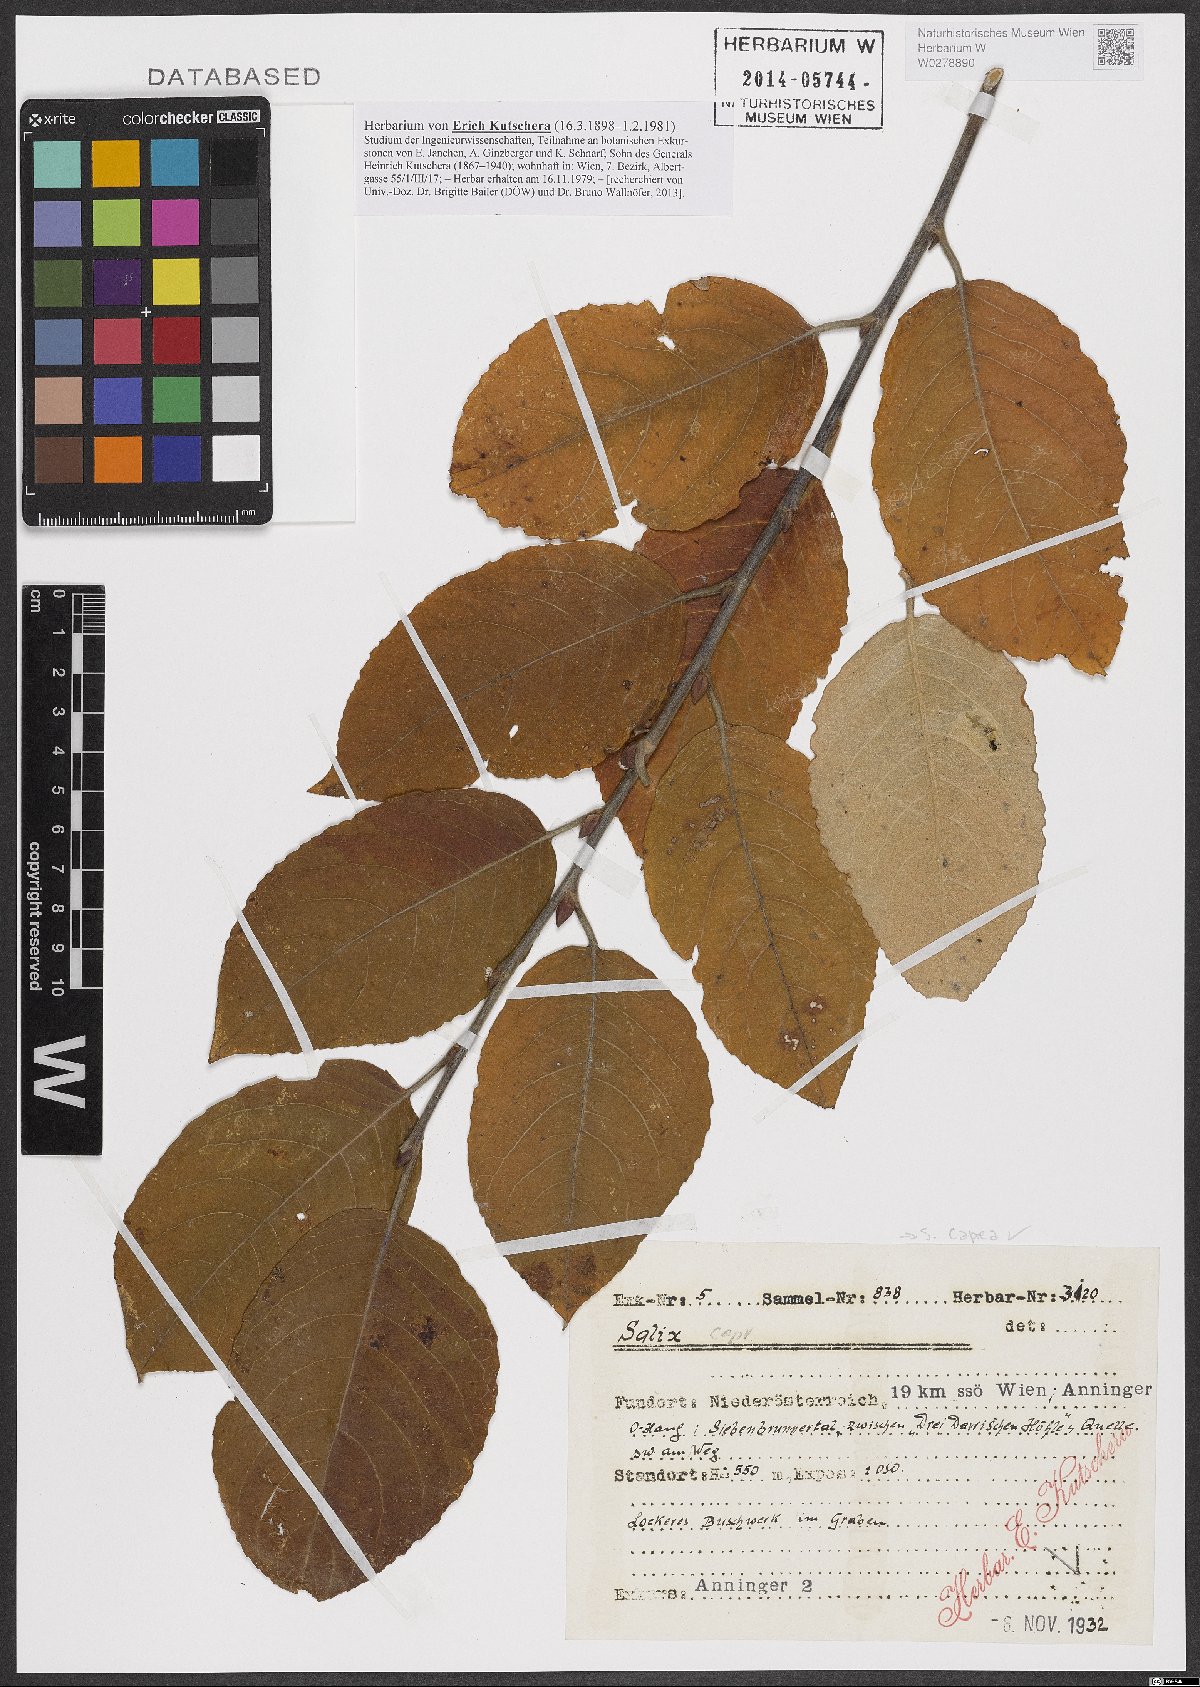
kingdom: Plantae
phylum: Tracheophyta
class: Magnoliopsida
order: Malpighiales
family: Salicaceae
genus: Salix
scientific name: Salix caprea
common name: Goat willow
